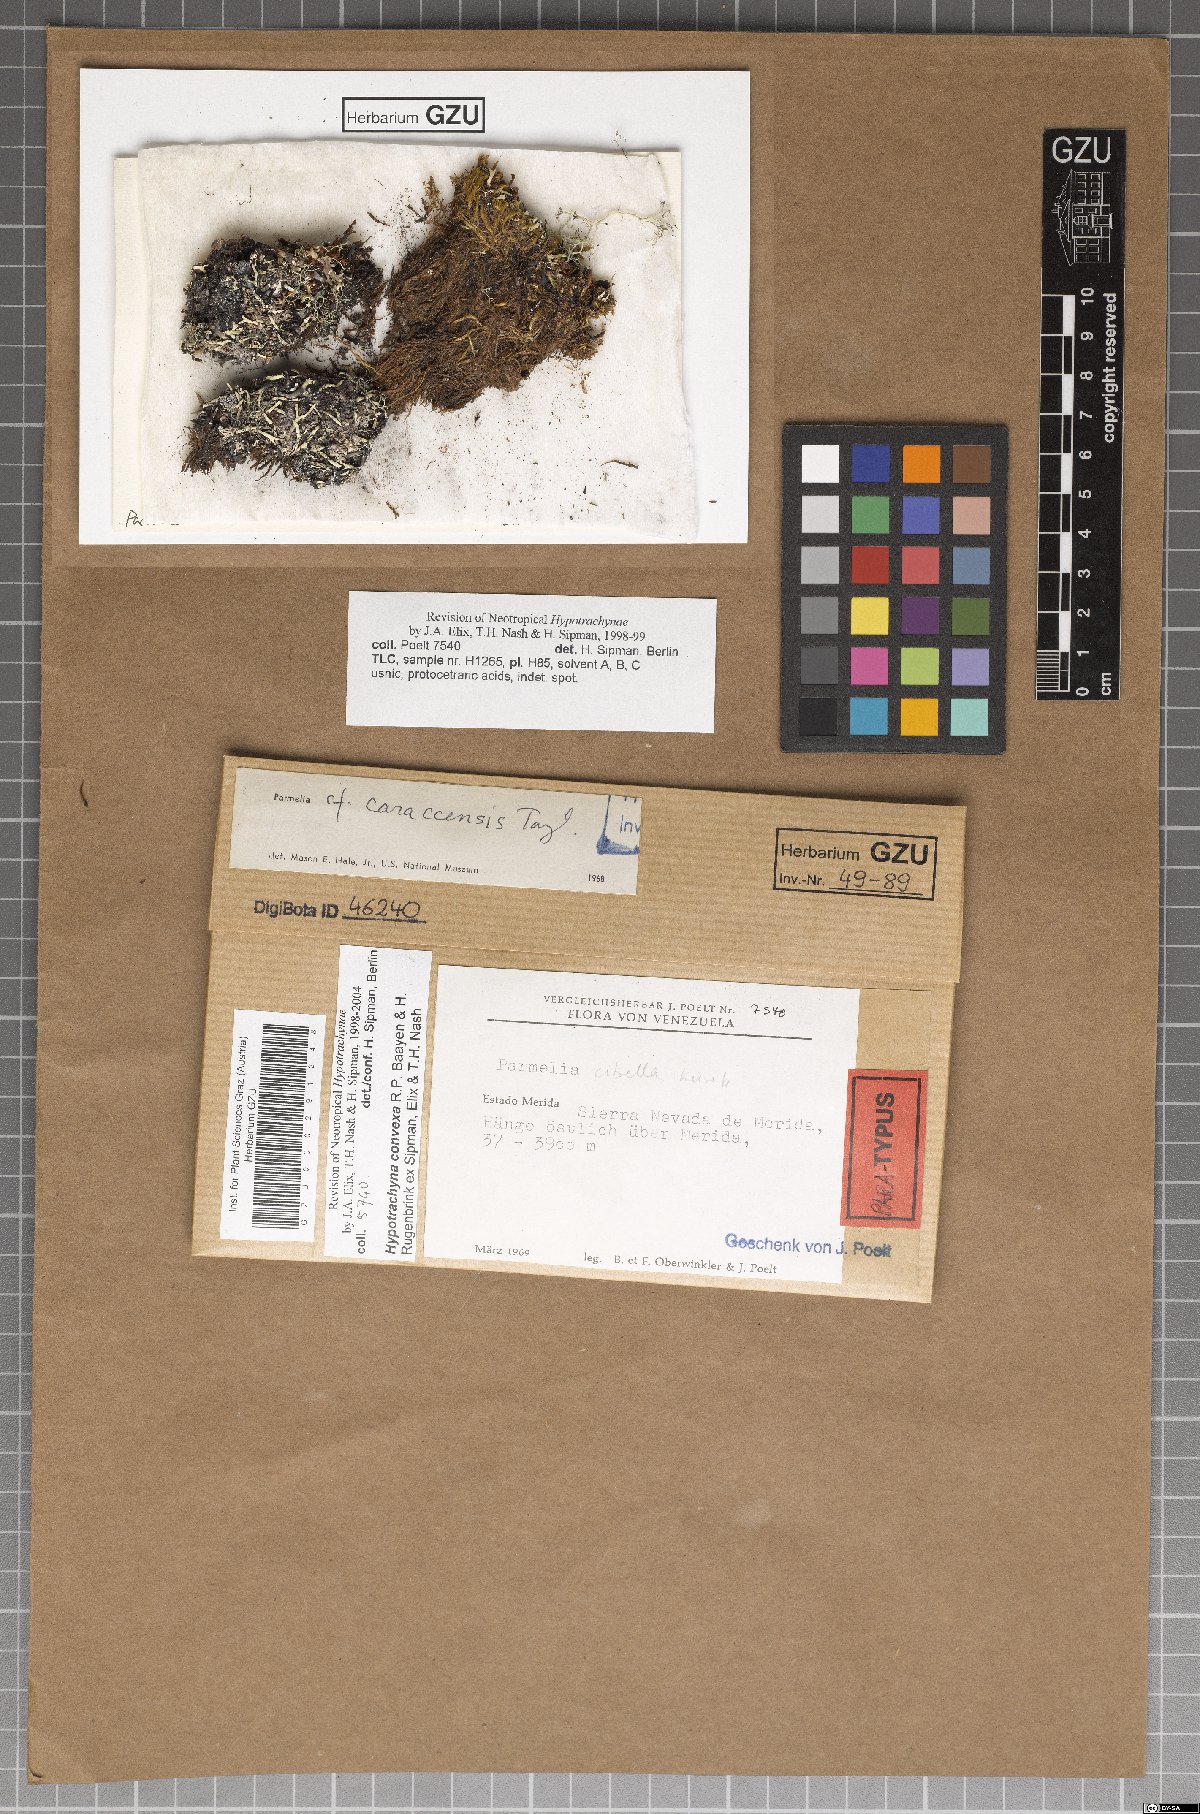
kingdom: Fungi
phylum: Ascomycota
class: Lecanoromycetes
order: Lecanorales
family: Parmeliaceae
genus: Hypotrachyna
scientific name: Hypotrachyna convexa
